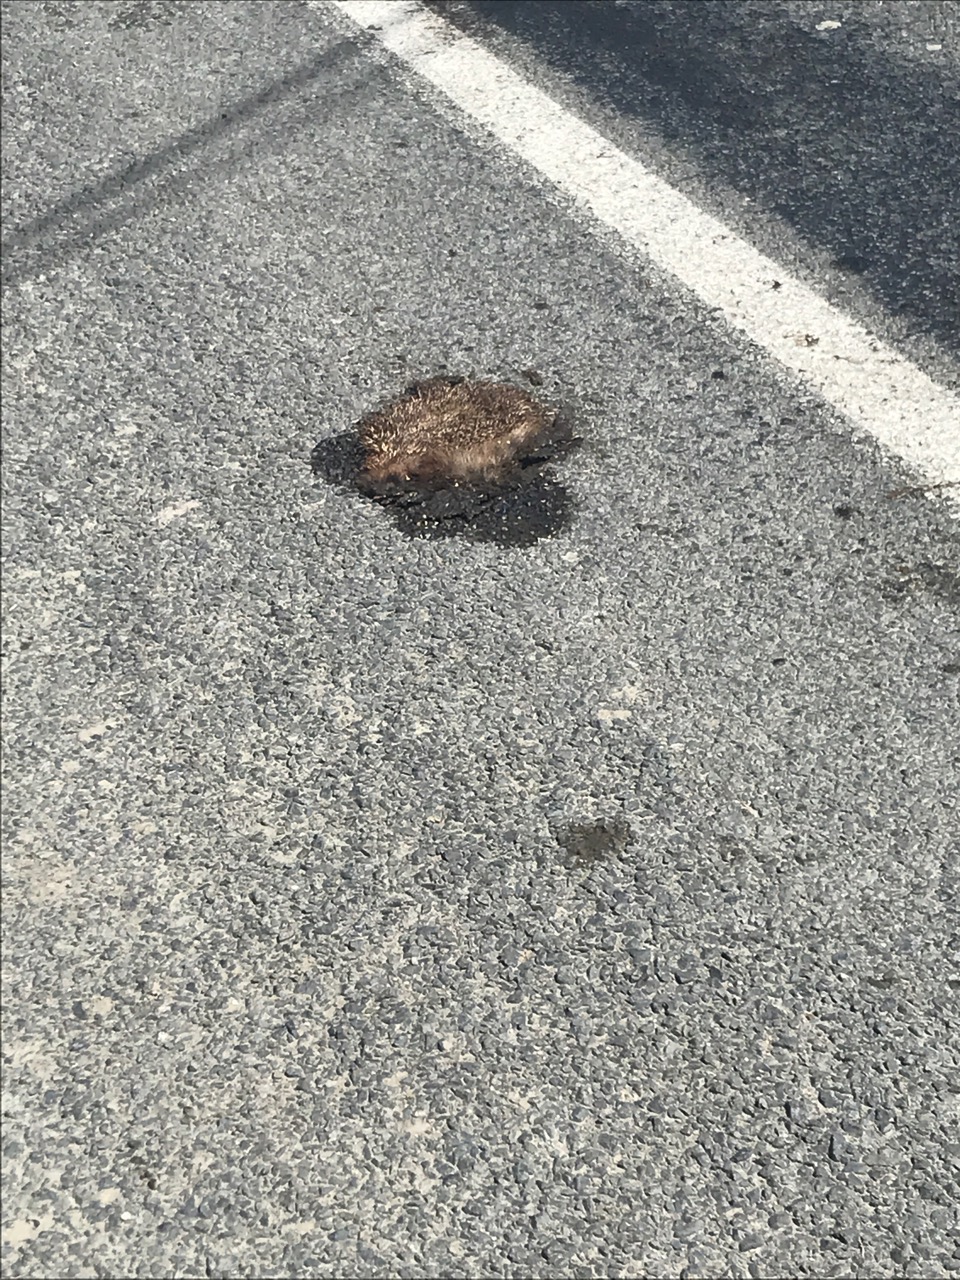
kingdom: Animalia
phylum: Chordata
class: Mammalia
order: Erinaceomorpha
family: Erinaceidae
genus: Erinaceus
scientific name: Erinaceus
